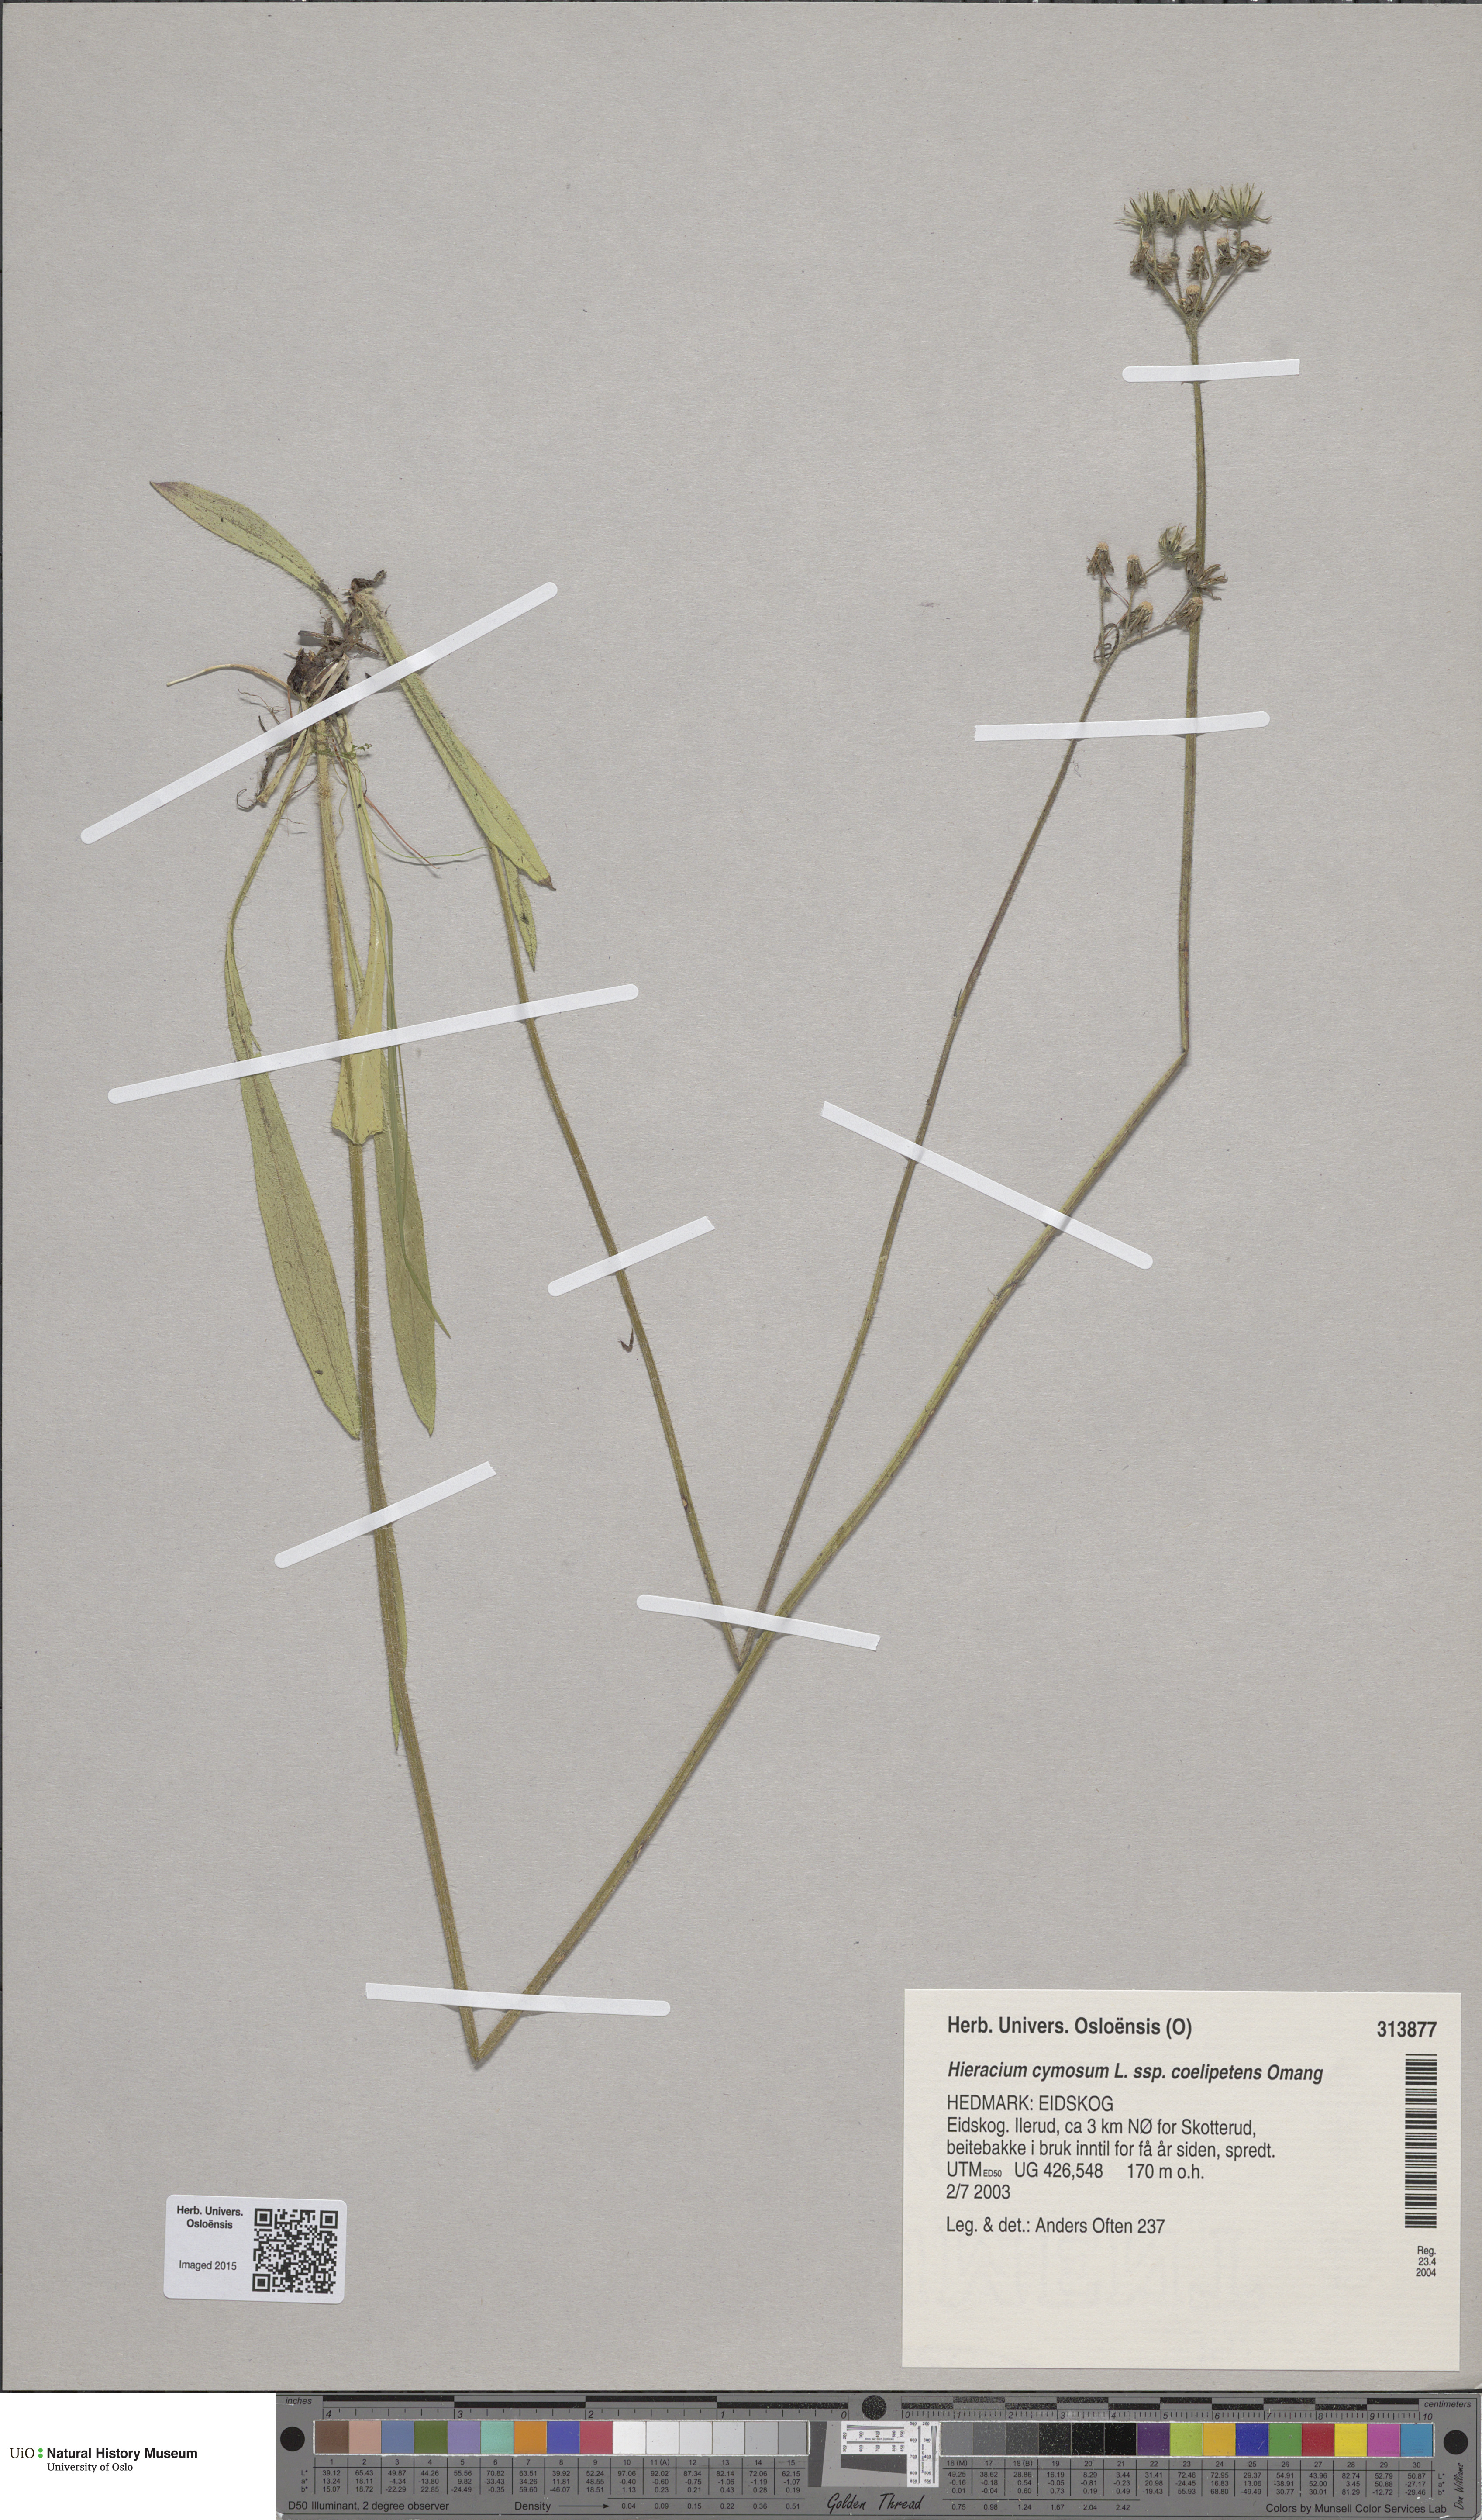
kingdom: Plantae
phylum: Tracheophyta
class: Magnoliopsida
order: Asterales
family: Asteraceae
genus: Pilosella
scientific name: Pilosella cymosa
